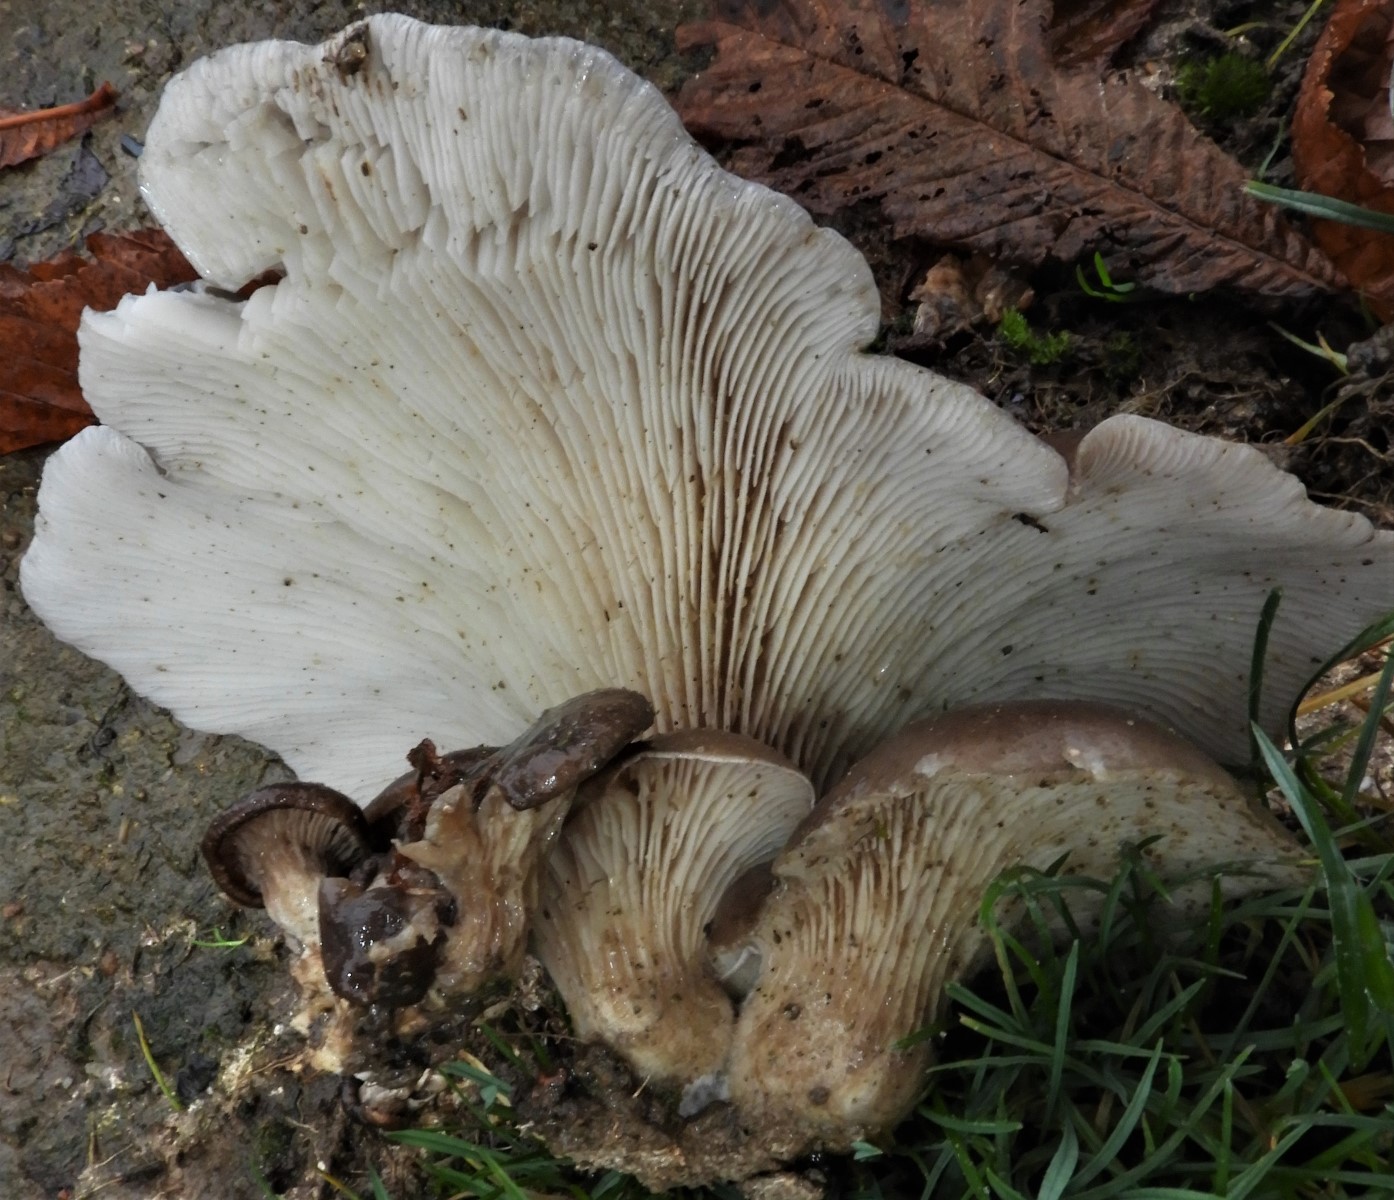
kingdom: Fungi
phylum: Basidiomycota
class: Agaricomycetes
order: Agaricales
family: Pleurotaceae
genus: Pleurotus
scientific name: Pleurotus ostreatus
